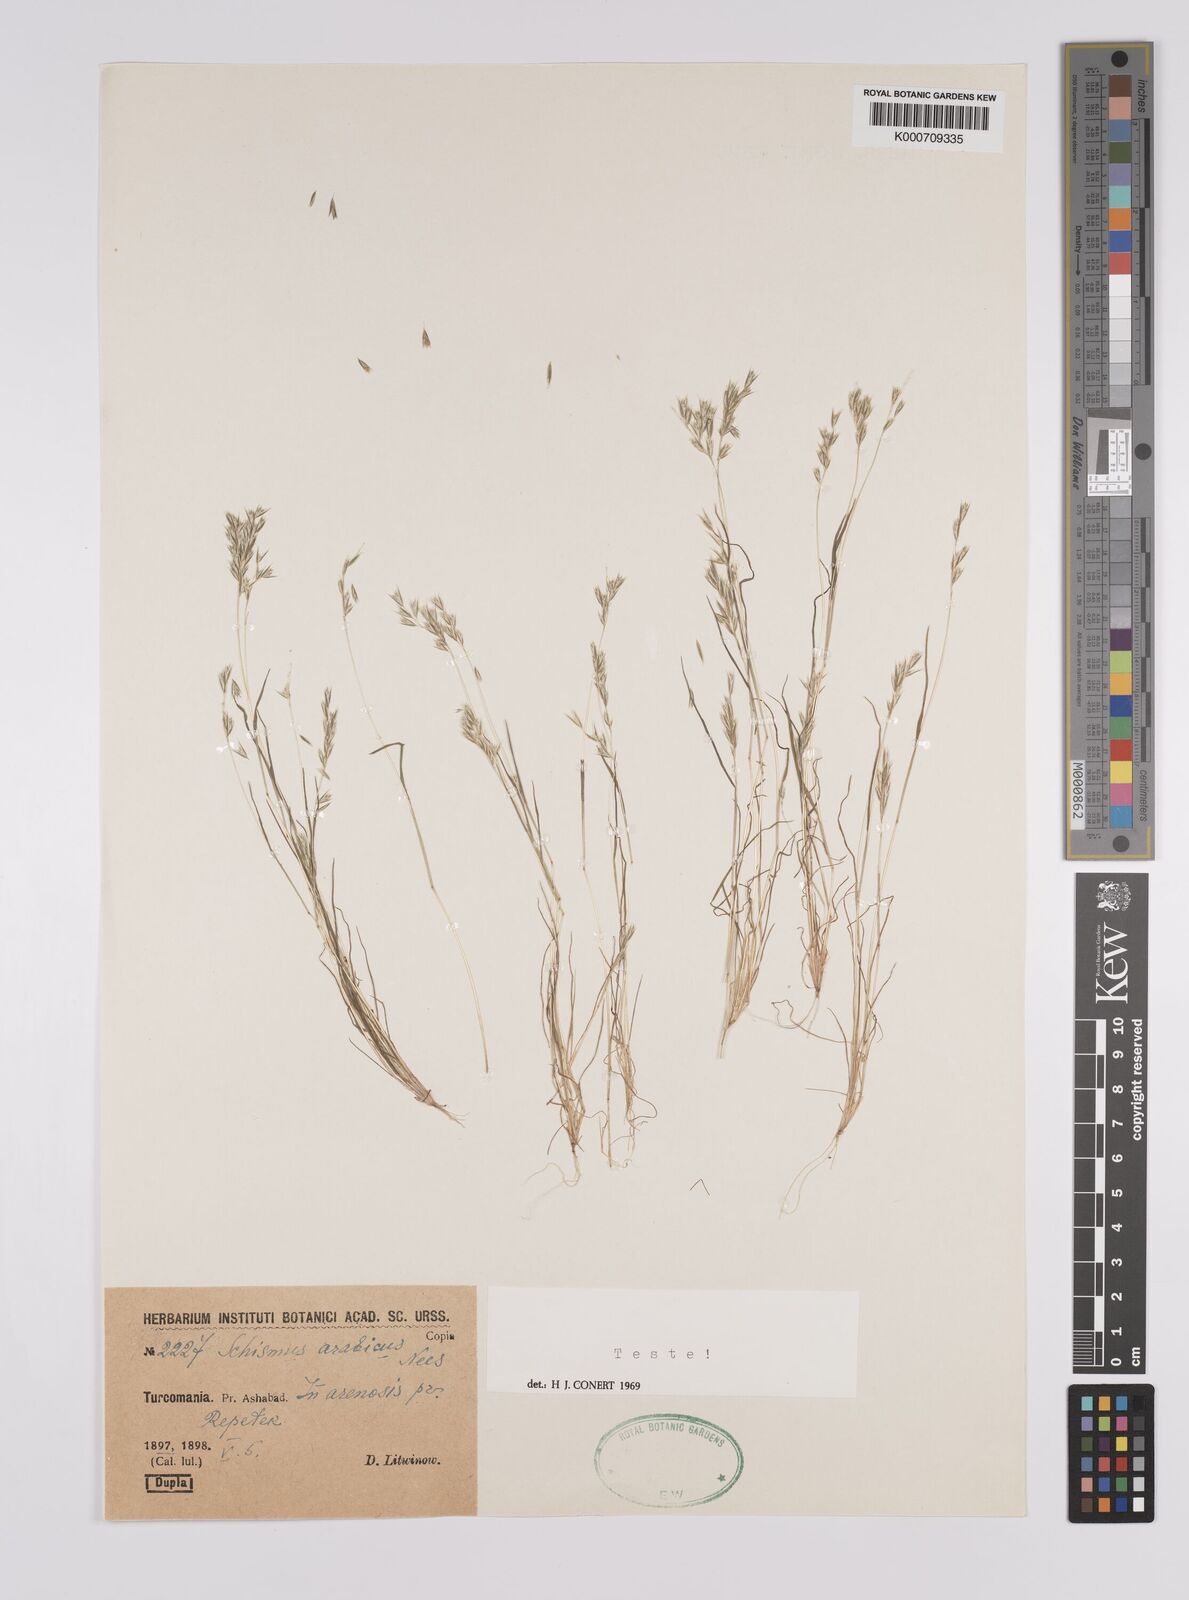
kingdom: Plantae
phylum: Tracheophyta
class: Liliopsida
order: Poales
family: Poaceae
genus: Schismus
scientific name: Schismus arabicus
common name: Arabian schismus
